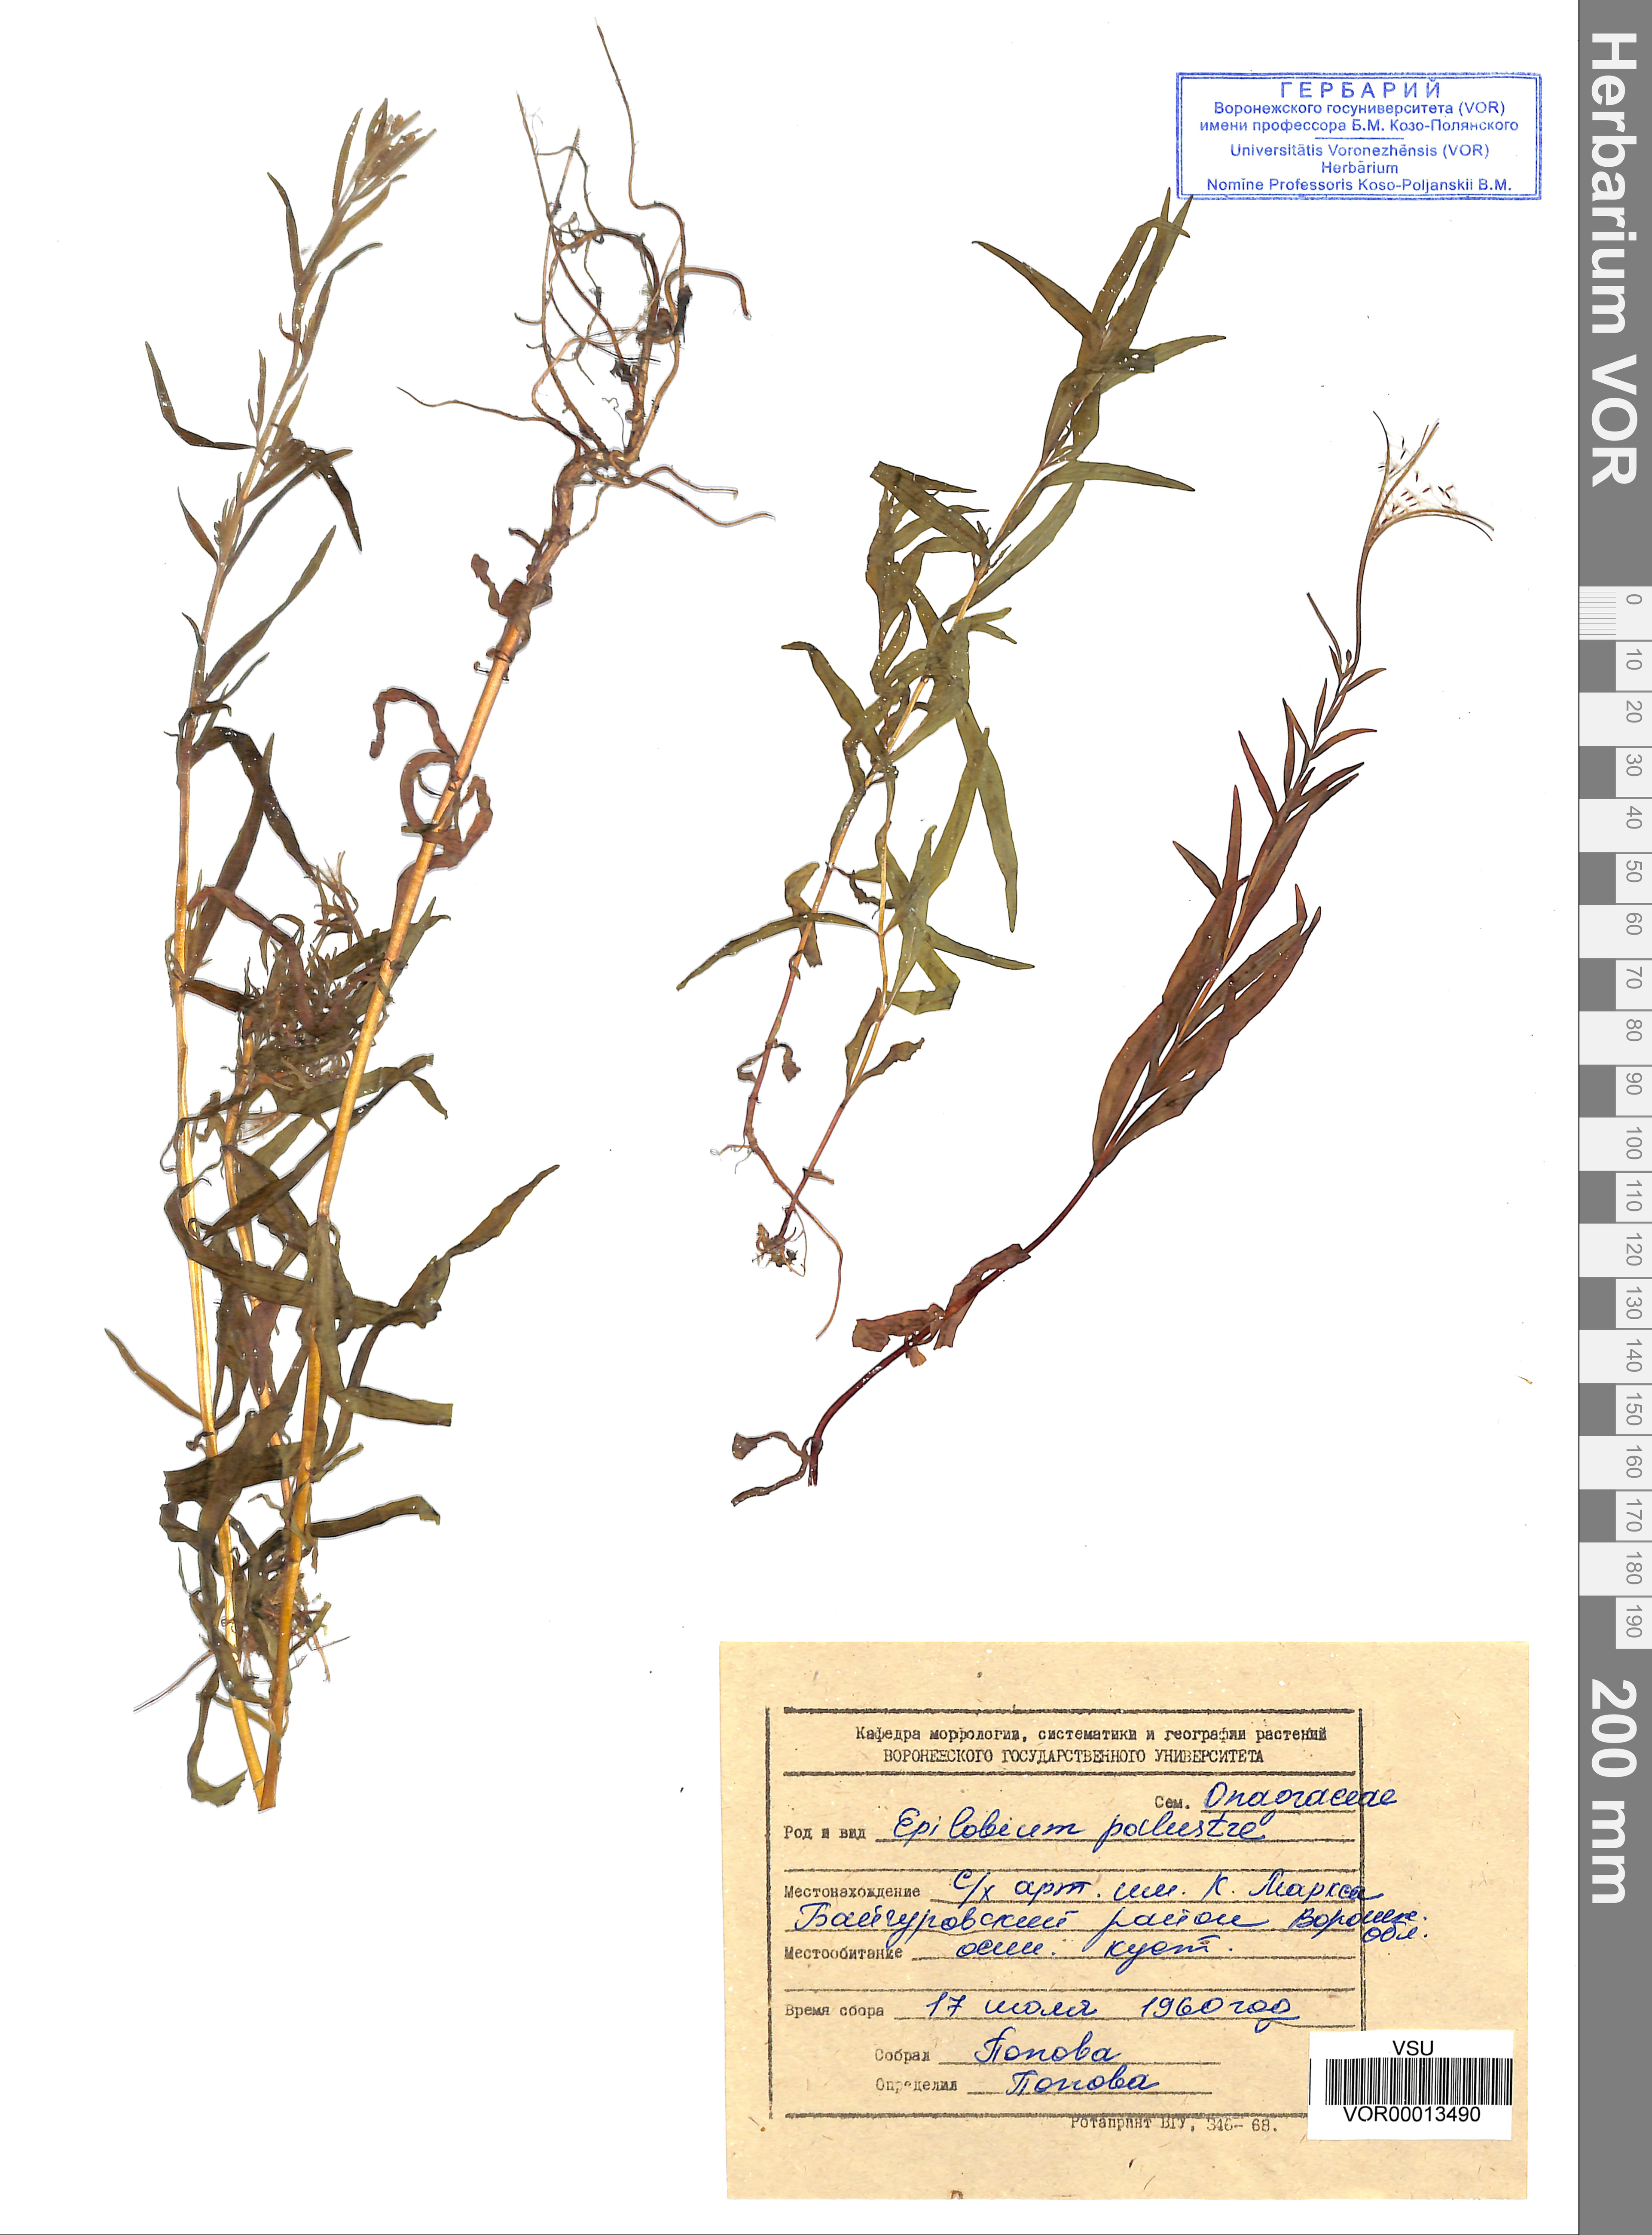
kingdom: Plantae
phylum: Tracheophyta
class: Magnoliopsida
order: Myrtales
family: Onagraceae
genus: Epilobium
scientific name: Epilobium palustre
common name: Marsh willowherb
